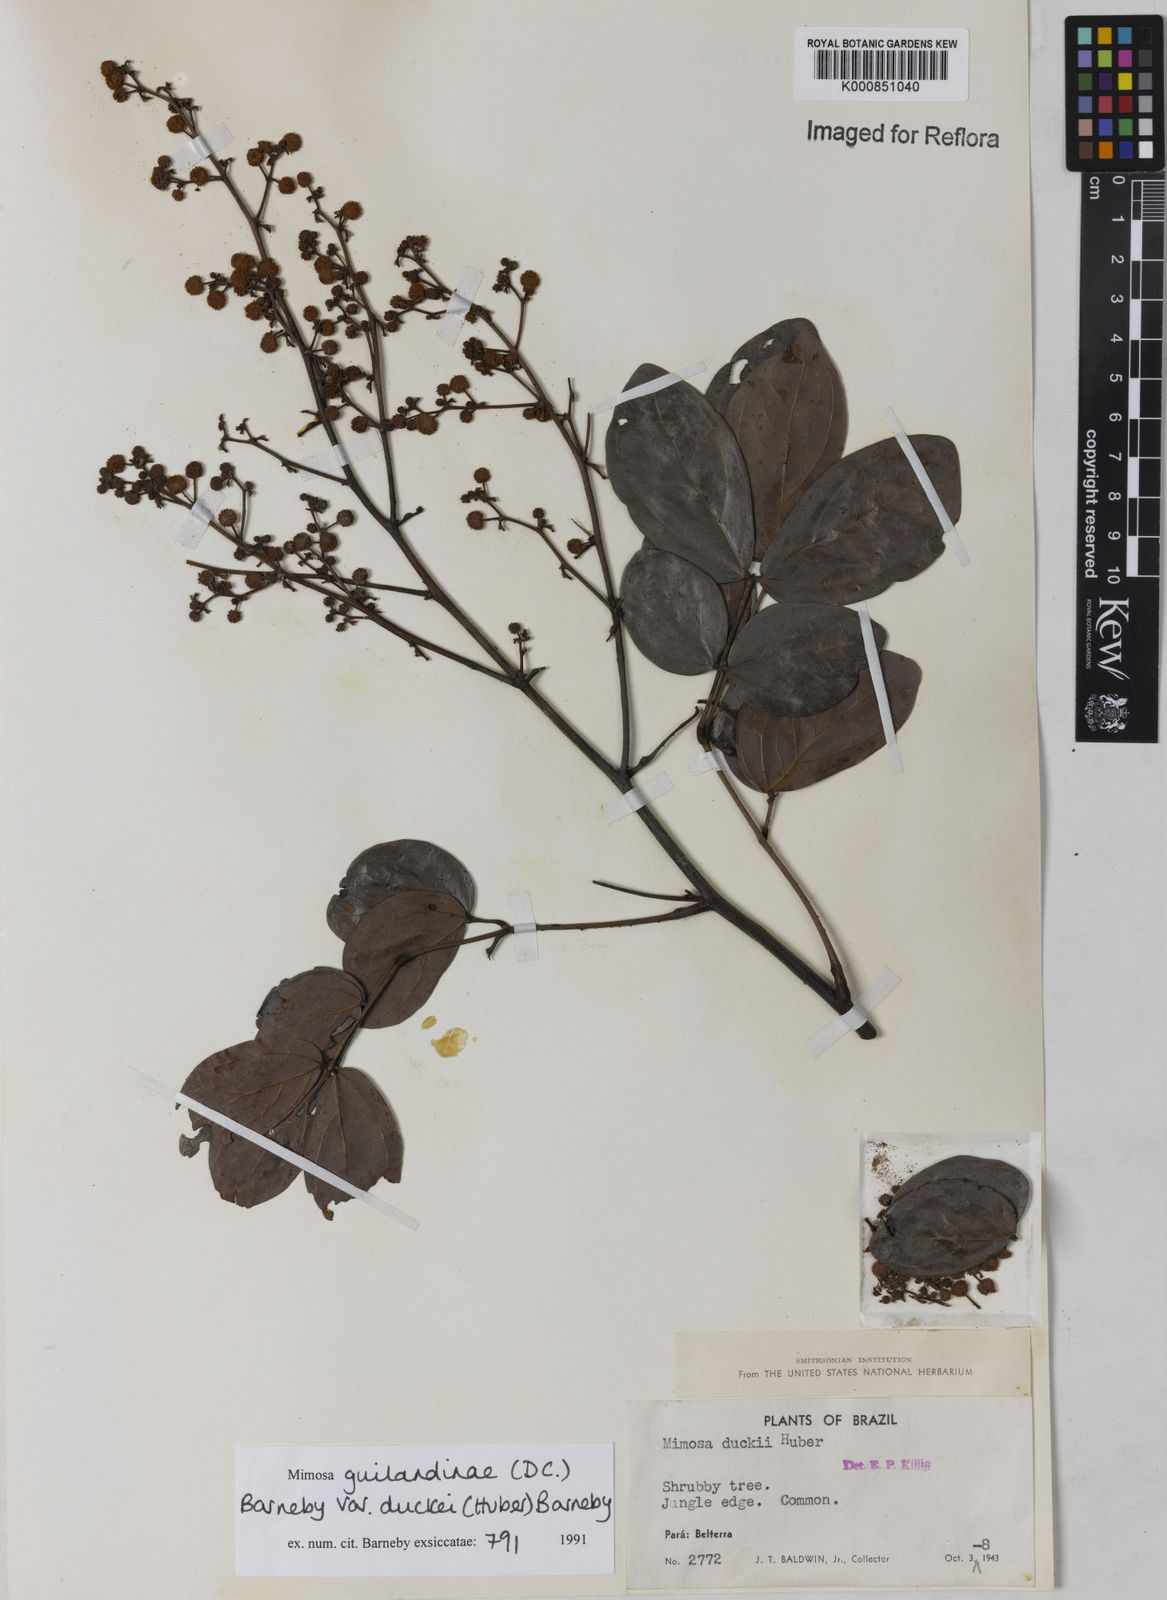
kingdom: Plantae
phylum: Tracheophyta
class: Magnoliopsida
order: Fabales
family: Fabaceae
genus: Mimosa
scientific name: Mimosa guilandinae
